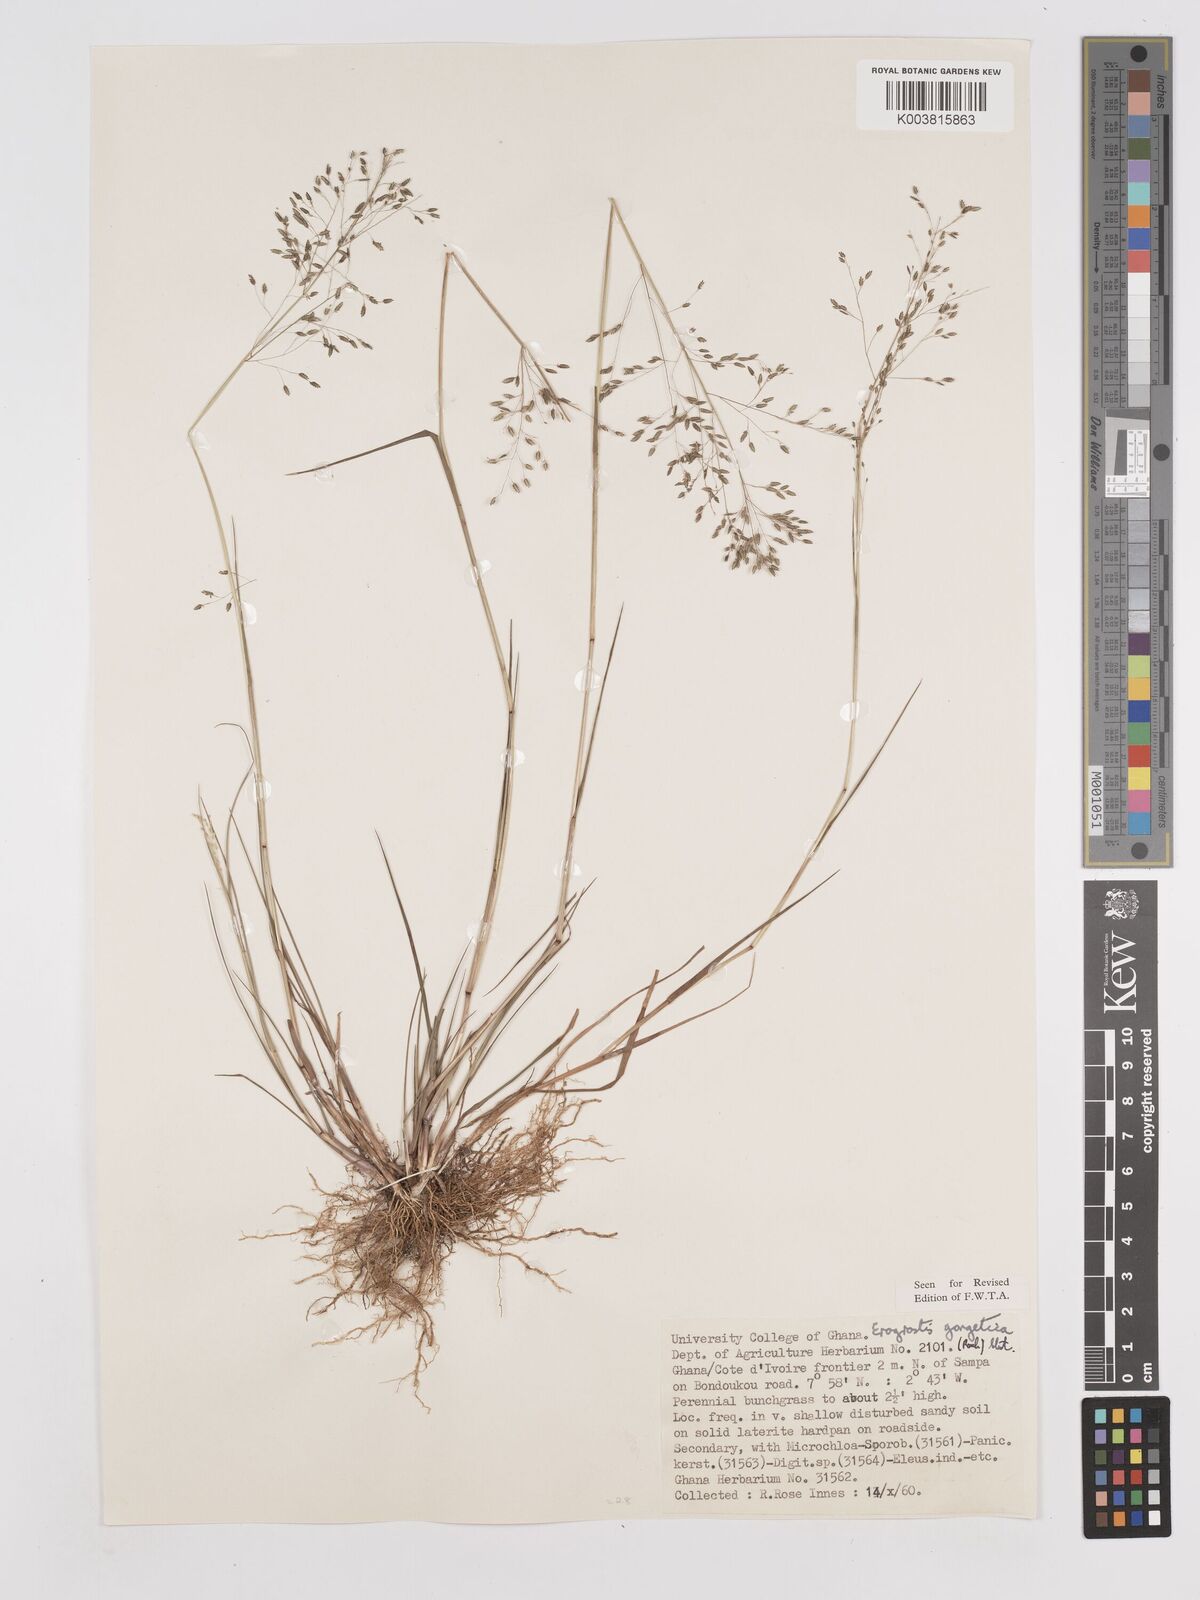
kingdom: Plantae
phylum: Tracheophyta
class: Liliopsida
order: Poales
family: Poaceae
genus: Eragrostis
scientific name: Eragrostis gangetica
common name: Slimflower lovegrass
